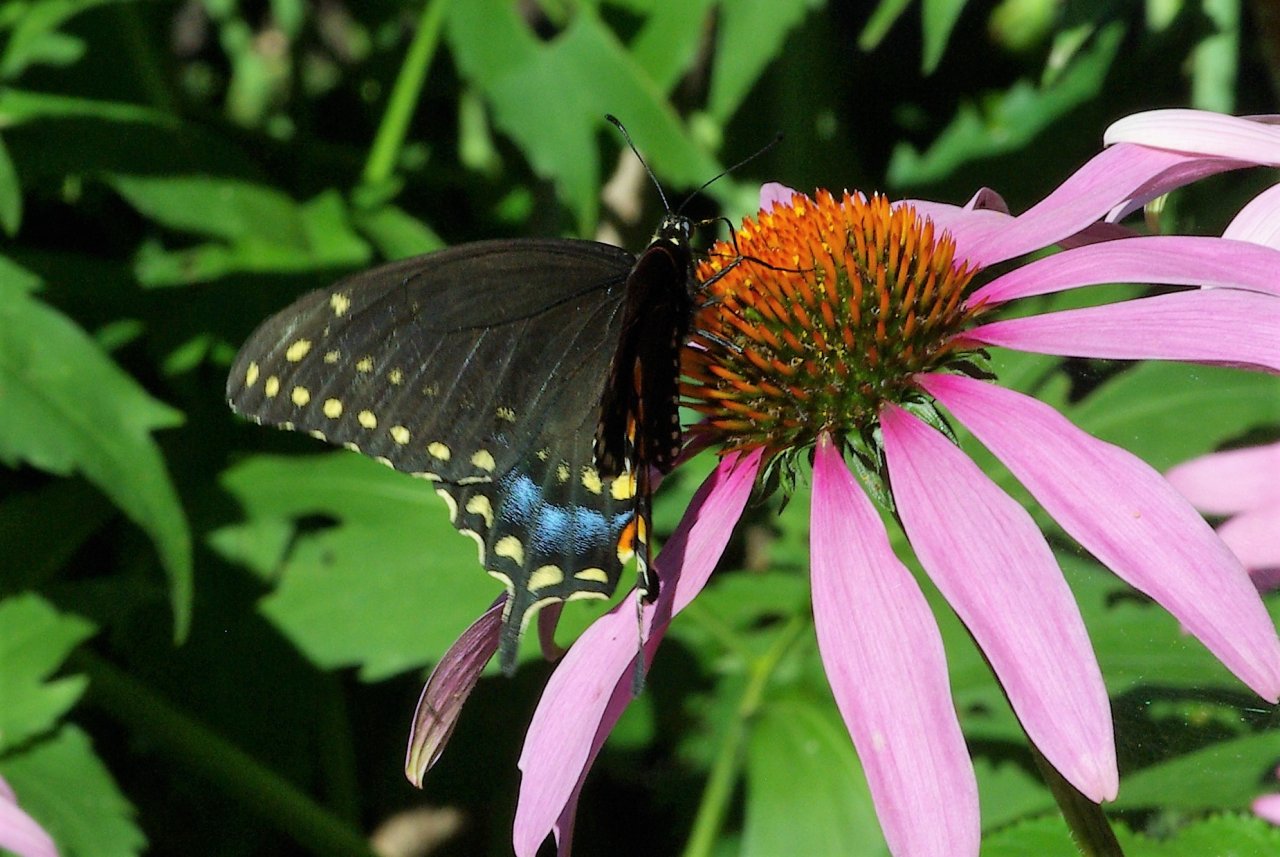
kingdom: Animalia
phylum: Arthropoda
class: Insecta
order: Lepidoptera
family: Papilionidae
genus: Papilio
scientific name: Papilio polyxenes
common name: Black Swallowtail
